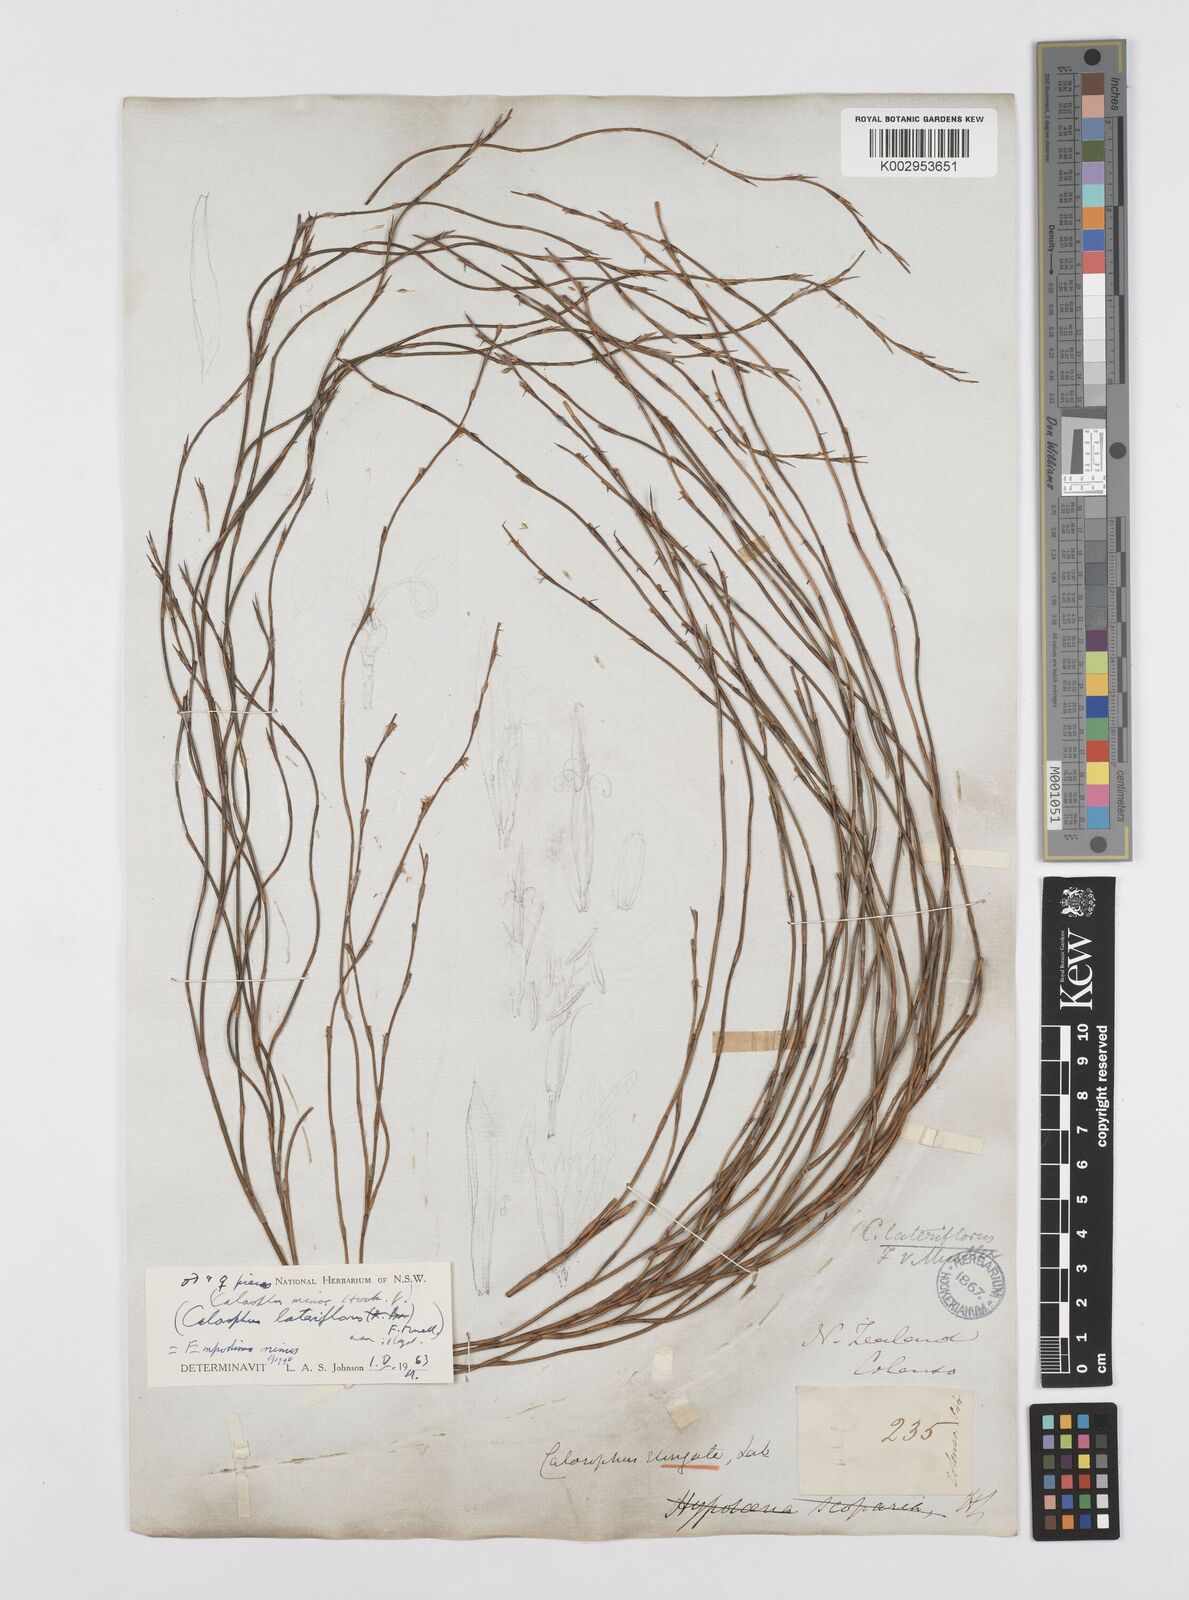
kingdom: Plantae
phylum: Tracheophyta
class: Liliopsida
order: Poales
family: Restionaceae
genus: Empodisma
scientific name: Empodisma minus
